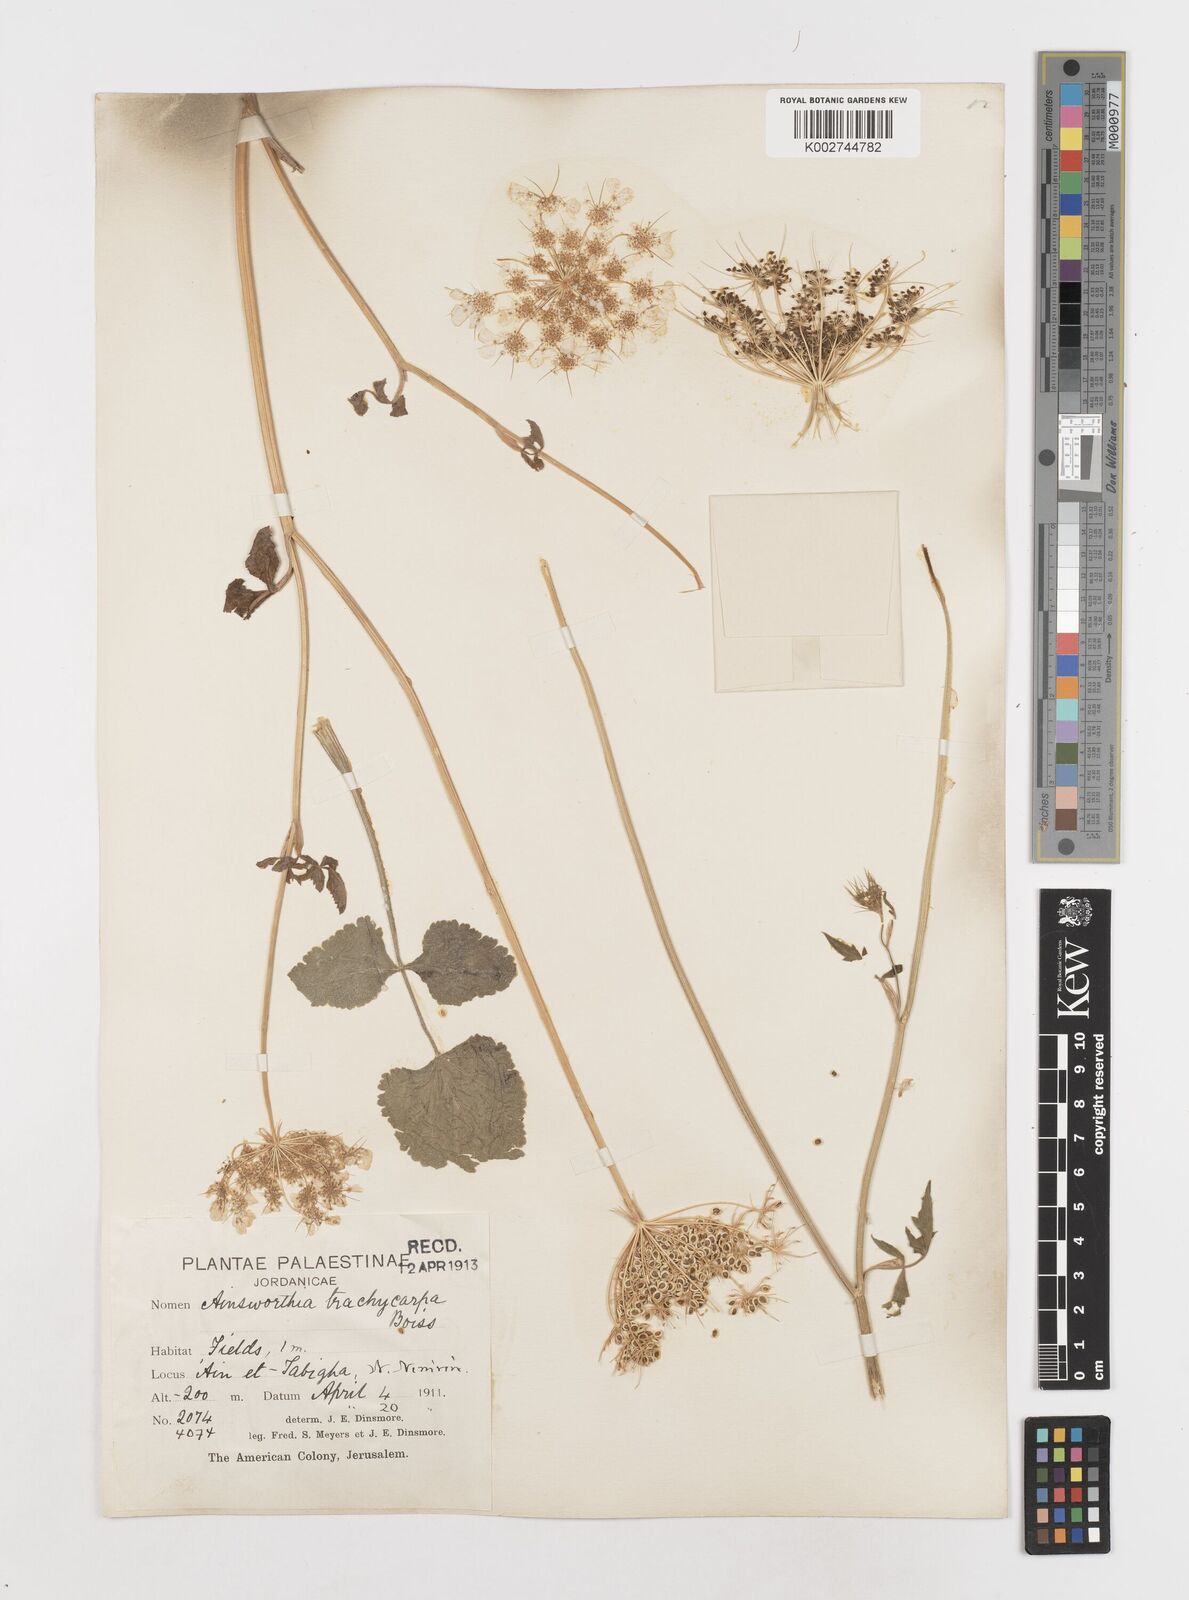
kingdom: Plantae
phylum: Tracheophyta
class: Magnoliopsida
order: Apiales
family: Apiaceae
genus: Ainsworthia
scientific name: Ainsworthia trachycarpa
